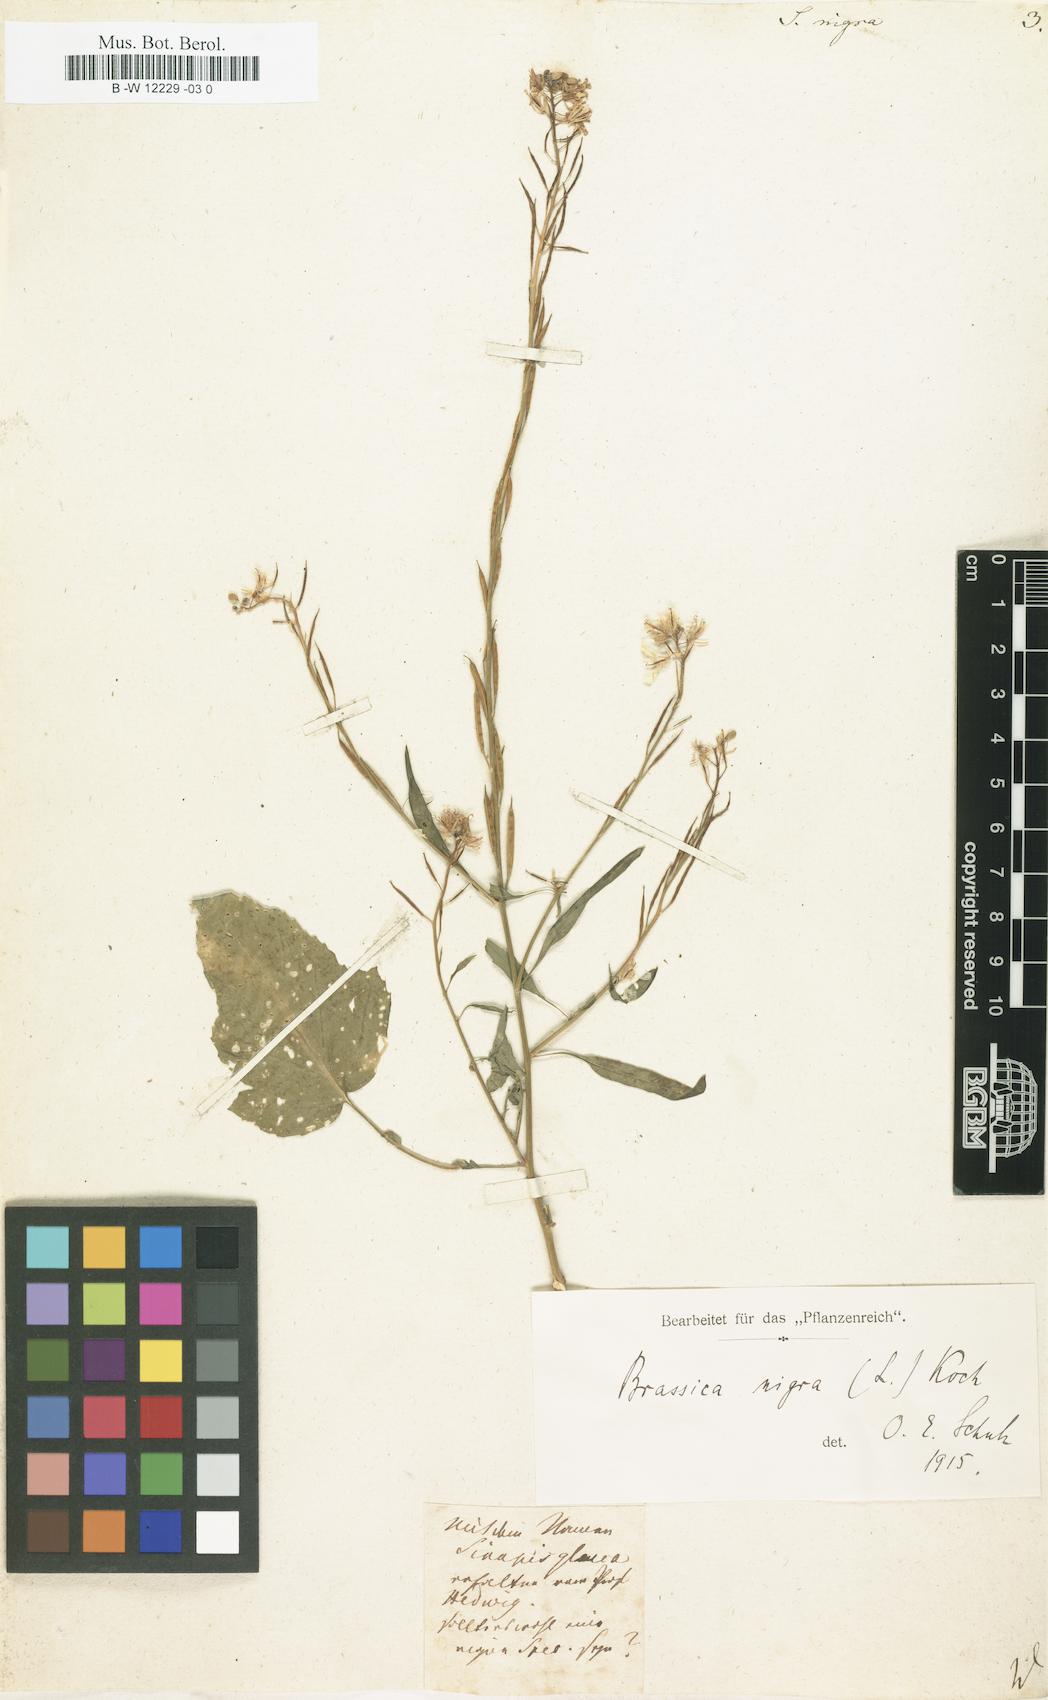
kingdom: Plantae
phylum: Tracheophyta
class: Magnoliopsida
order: Brassicales
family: Brassicaceae
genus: Sinapis
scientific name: Sinapis nigra
